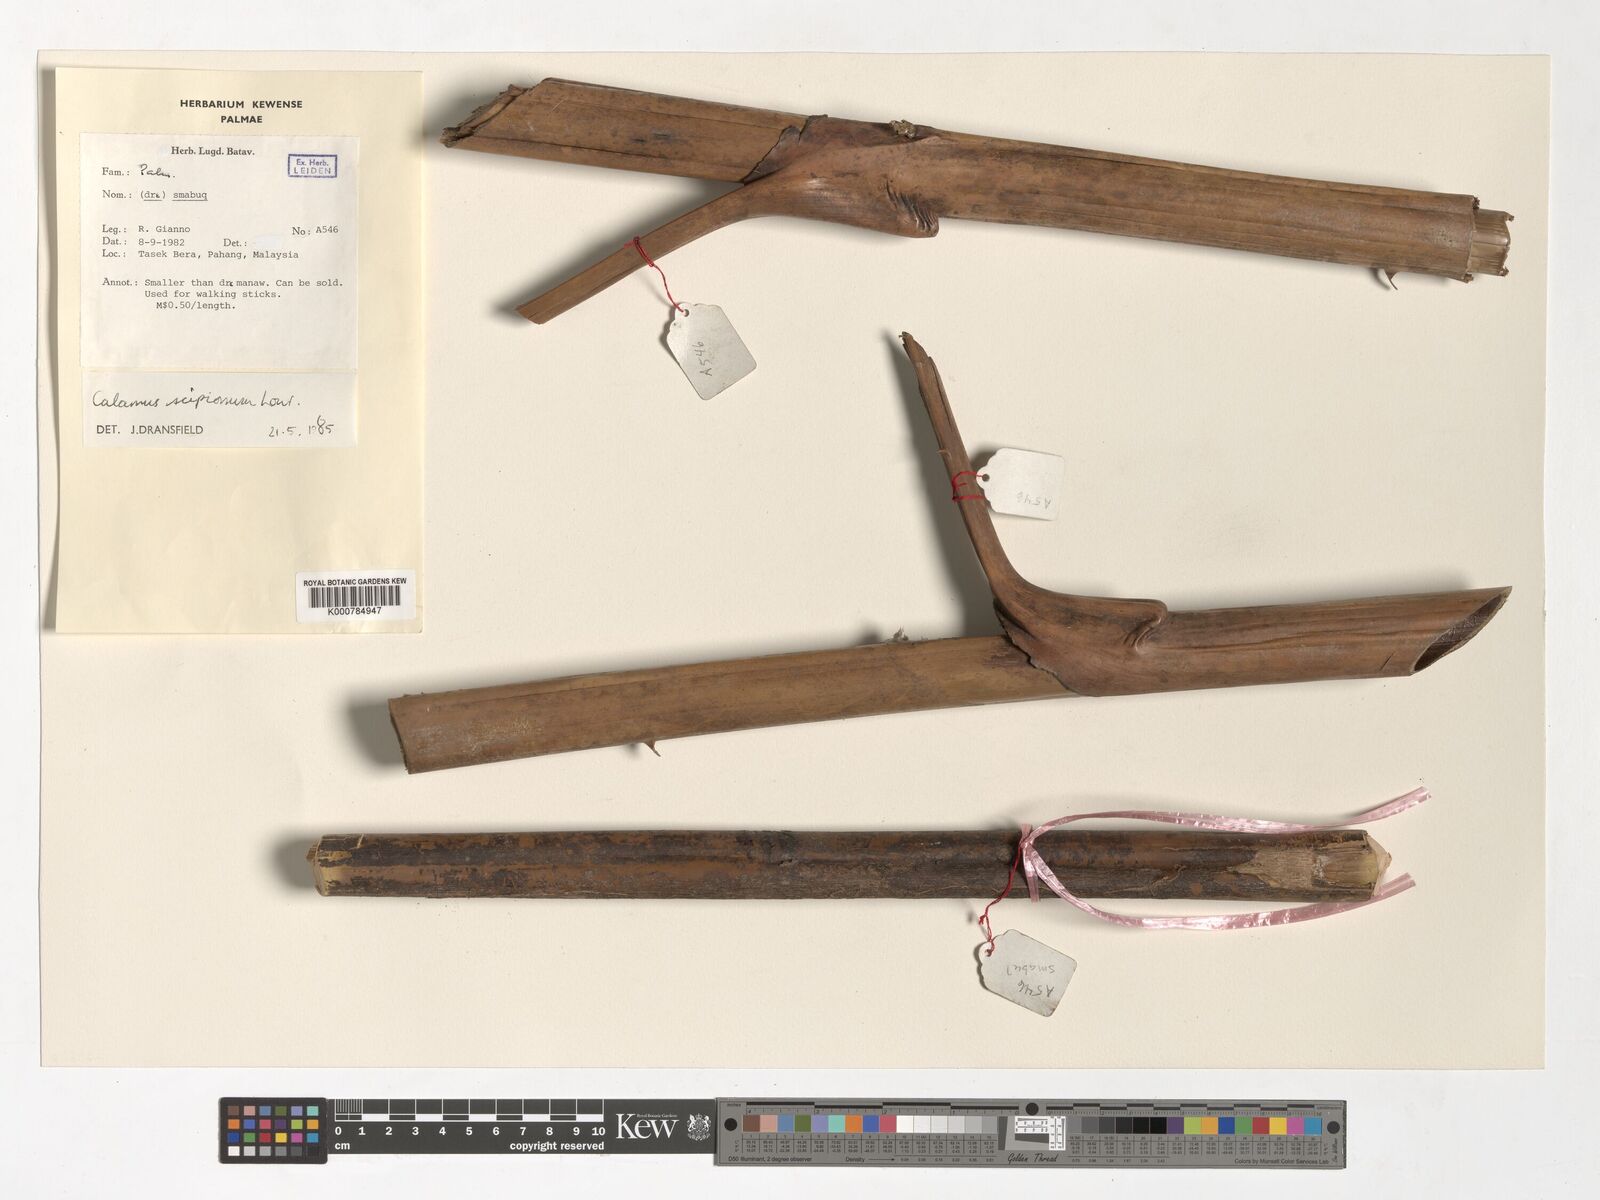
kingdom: Plantae
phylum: Tracheophyta
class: Liliopsida
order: Arecales
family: Arecaceae
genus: Calamus
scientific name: Calamus scipionum
